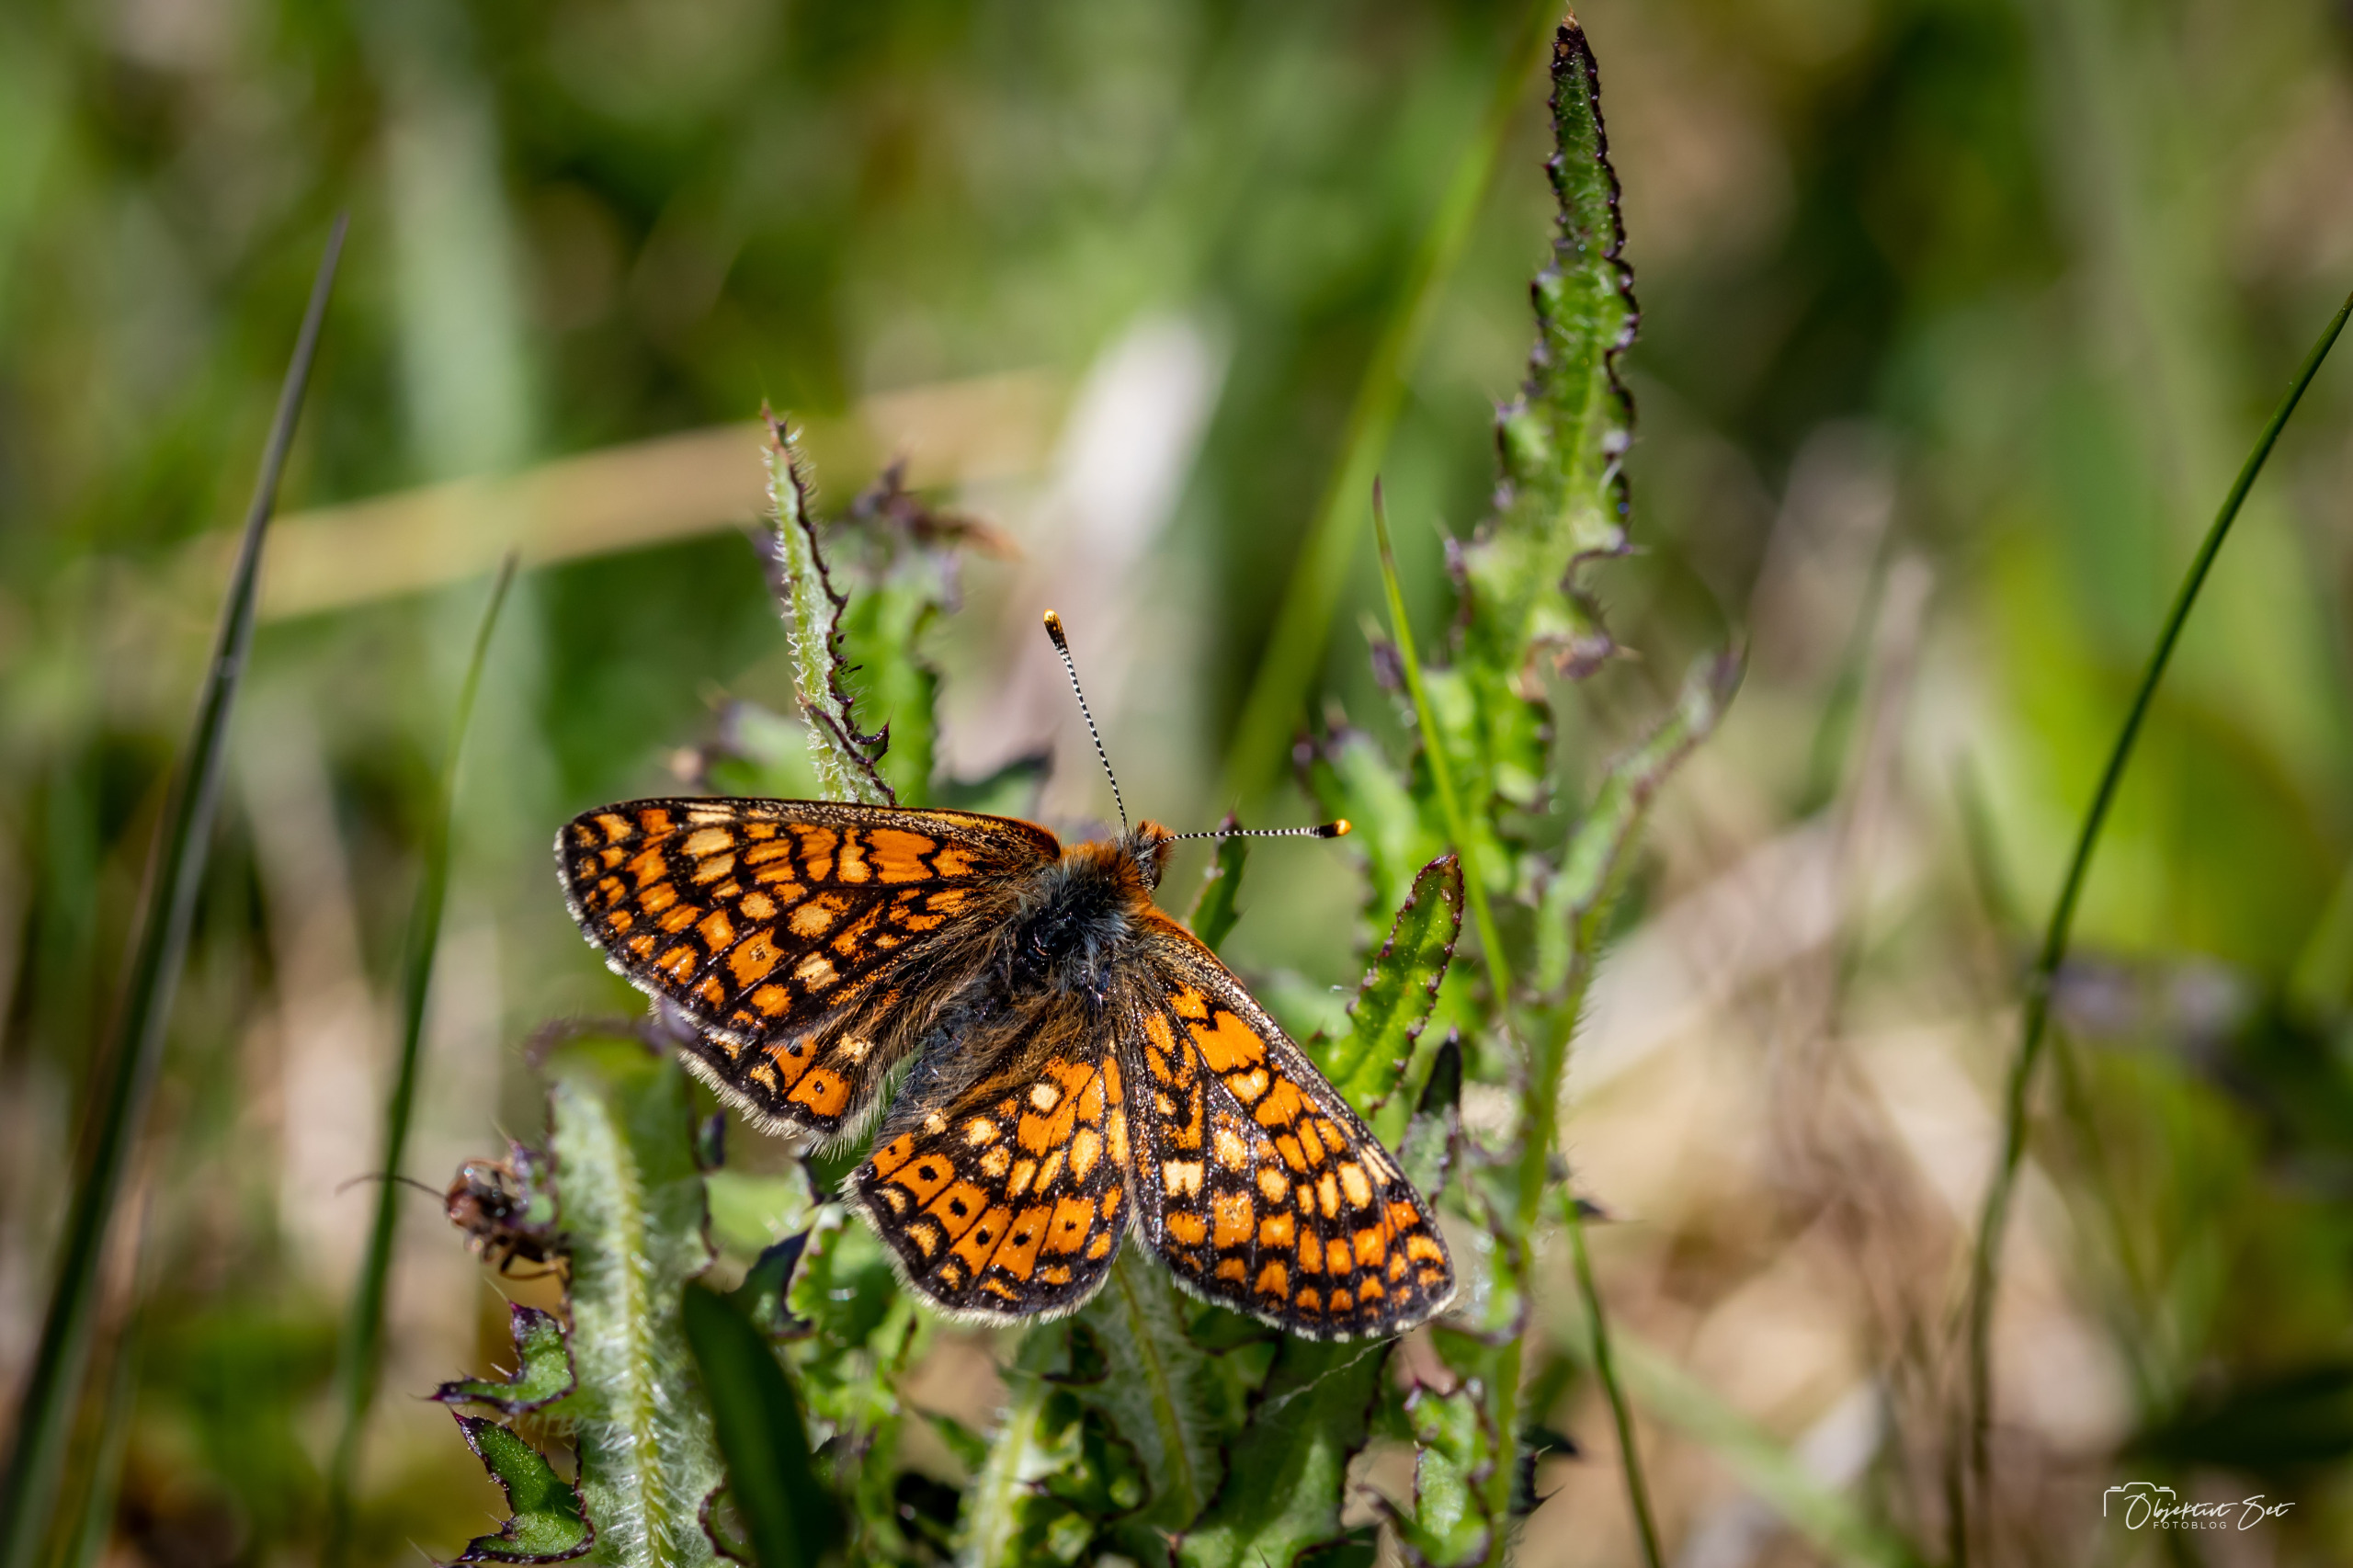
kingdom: Animalia
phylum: Arthropoda
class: Insecta
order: Lepidoptera
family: Nymphalidae
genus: Euphydryas
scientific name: Euphydryas aurinia
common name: Hedepletvinge
